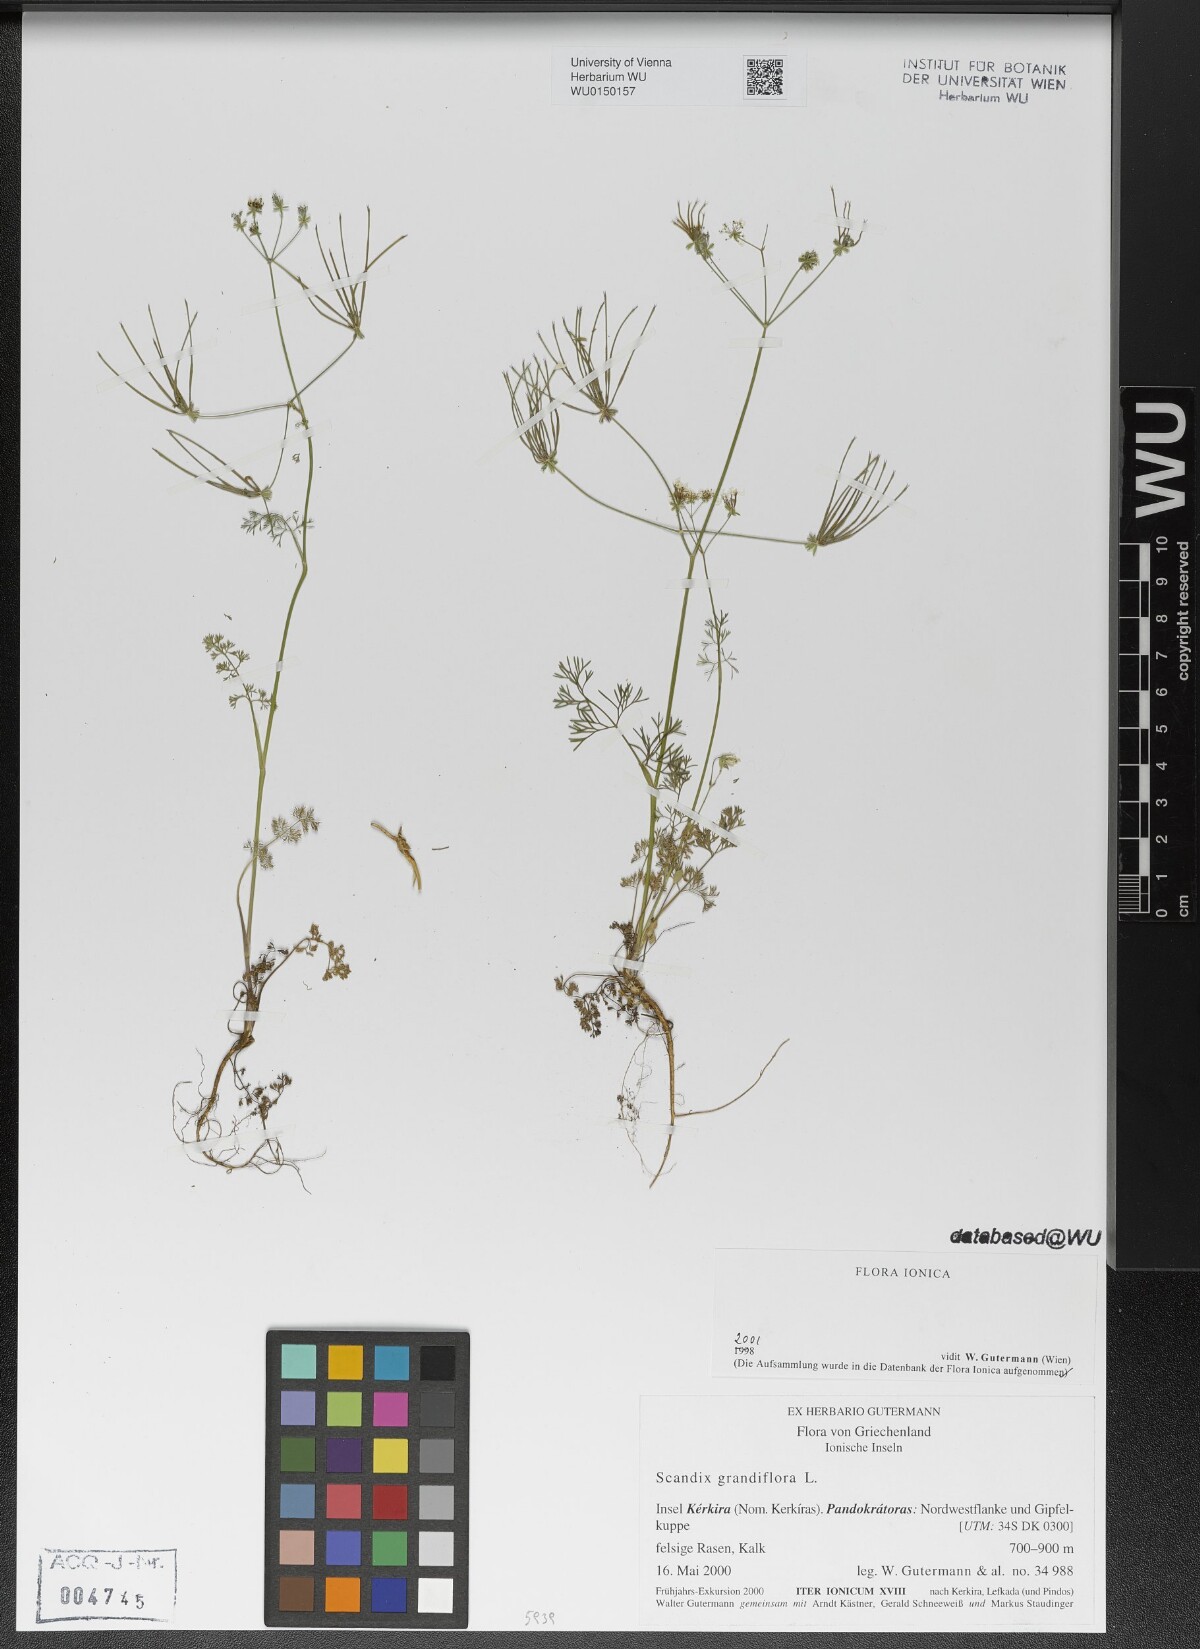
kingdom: Plantae
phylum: Tracheophyta
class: Magnoliopsida
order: Apiales
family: Apiaceae
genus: Scandix
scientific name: Scandix australis
